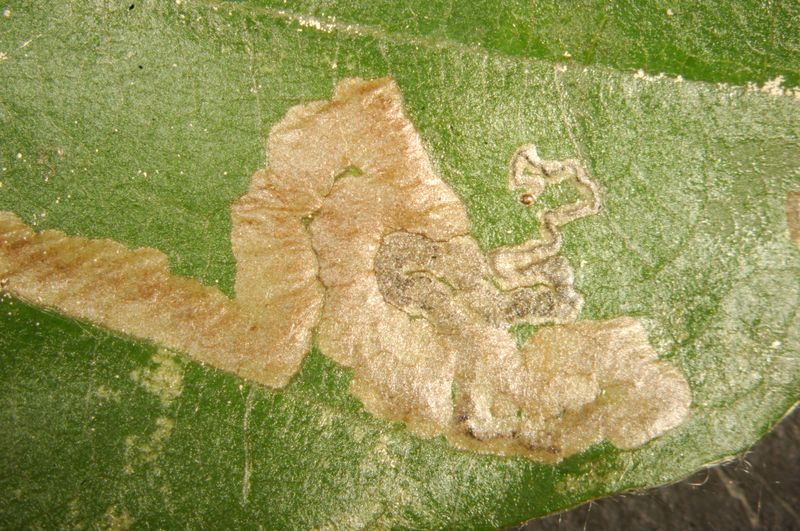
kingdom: Animalia
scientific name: Animalia
